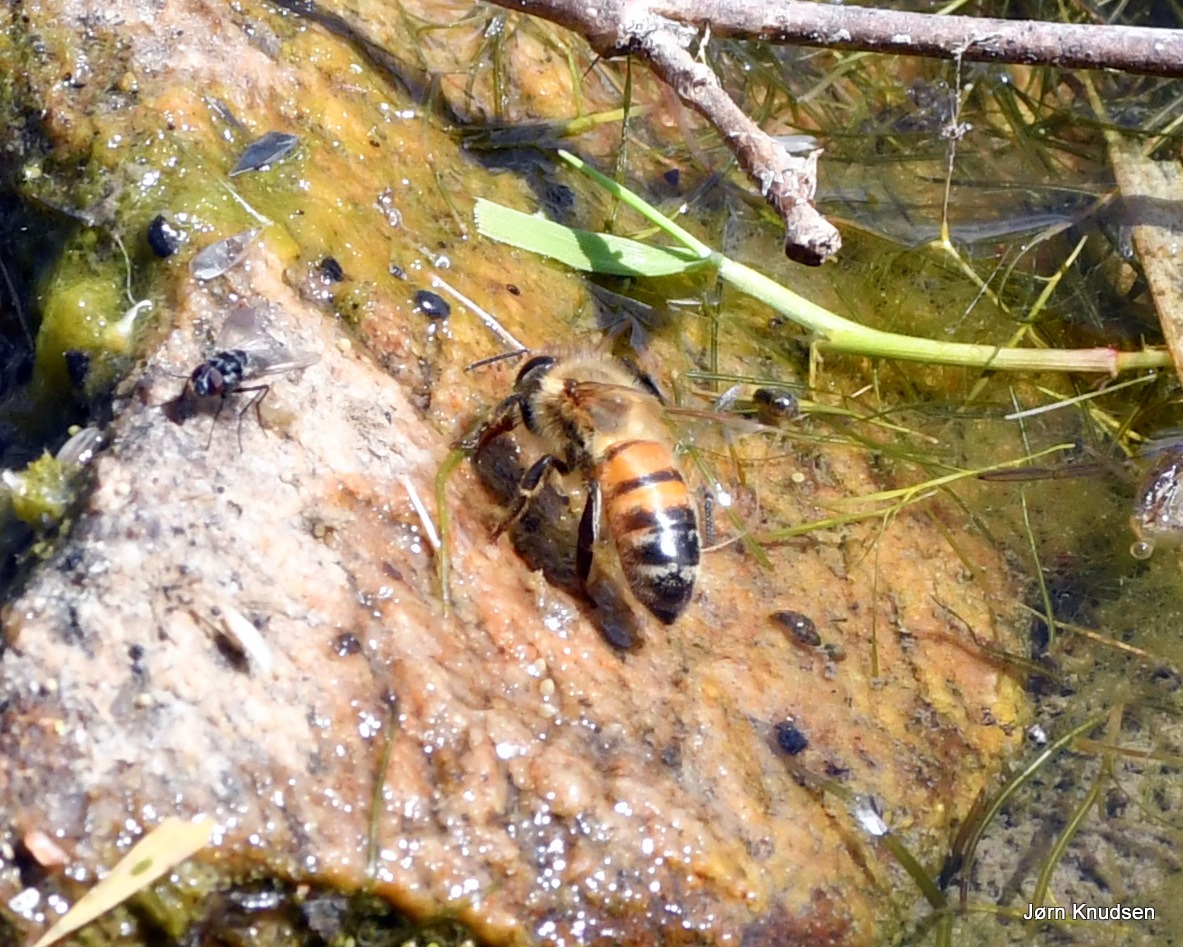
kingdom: Animalia
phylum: Arthropoda
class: Insecta
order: Hymenoptera
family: Apidae
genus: Apis
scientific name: Apis mellifera
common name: Honningbi
